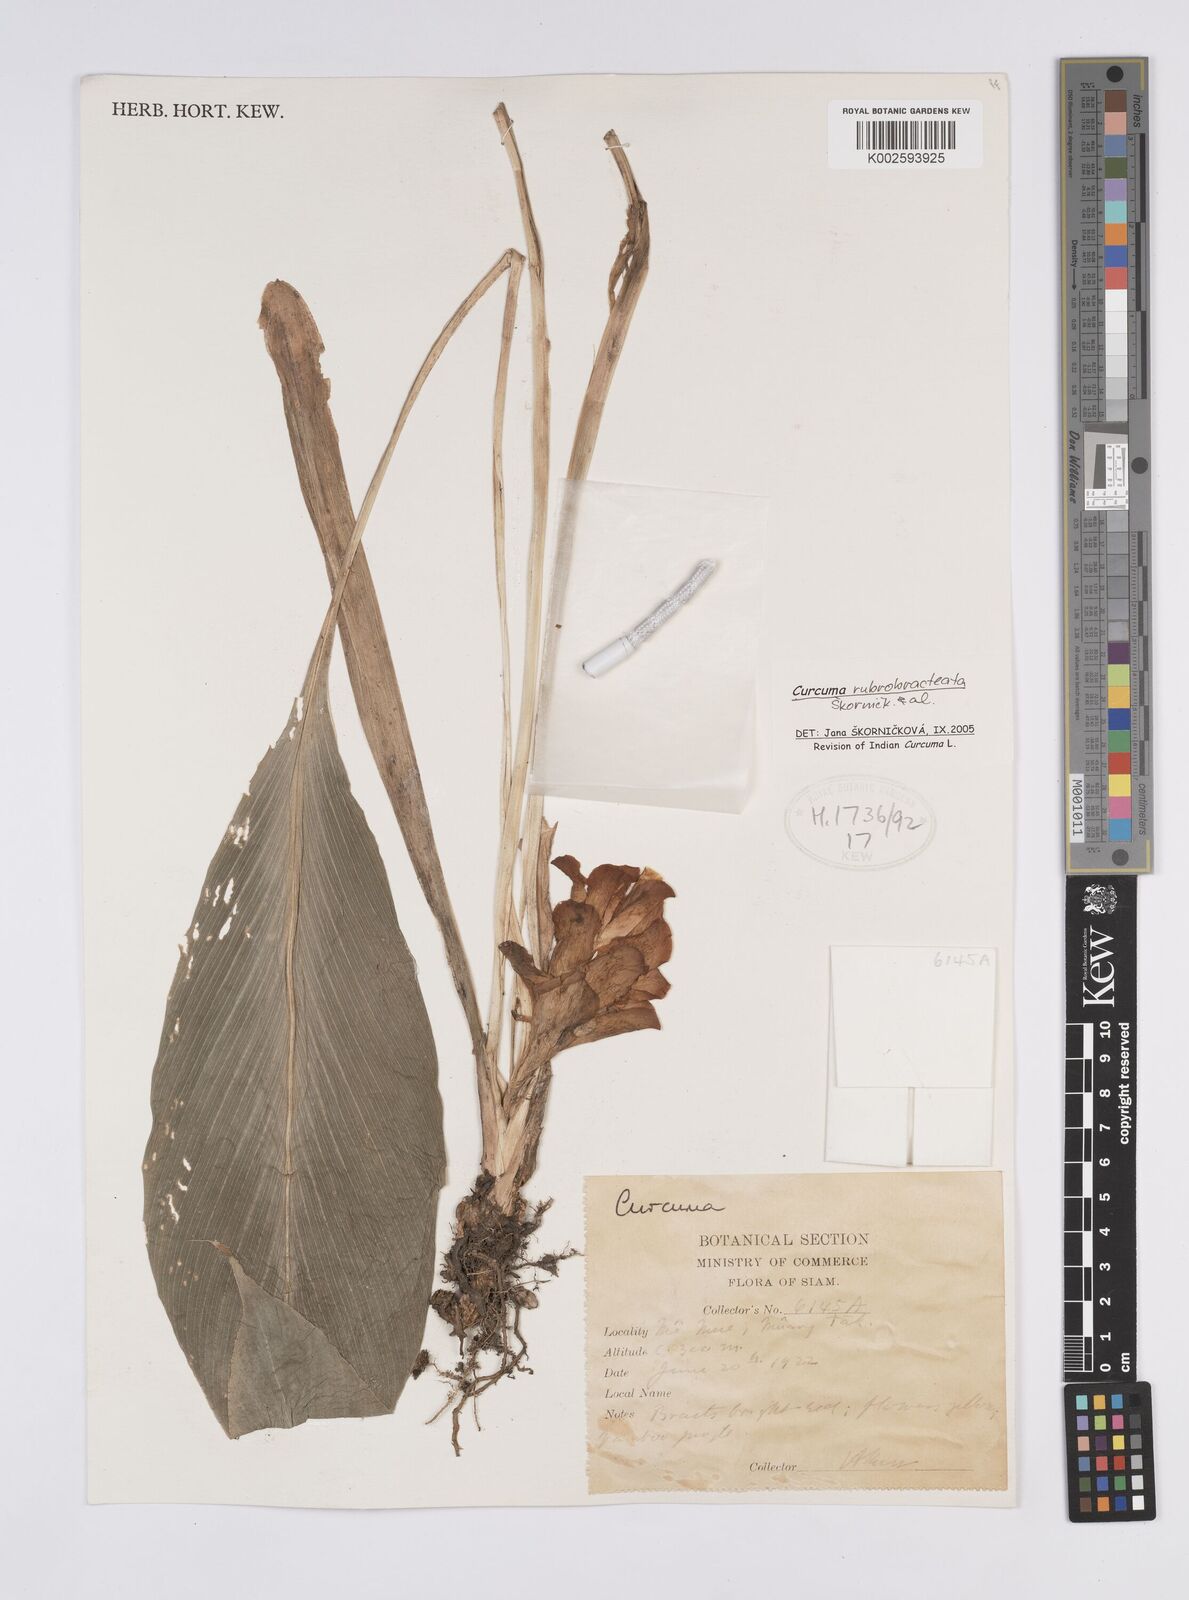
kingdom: Plantae
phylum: Tracheophyta
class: Liliopsida
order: Zingiberales
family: Zingiberaceae
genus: Curcuma
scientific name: Curcuma rubrobracteata
